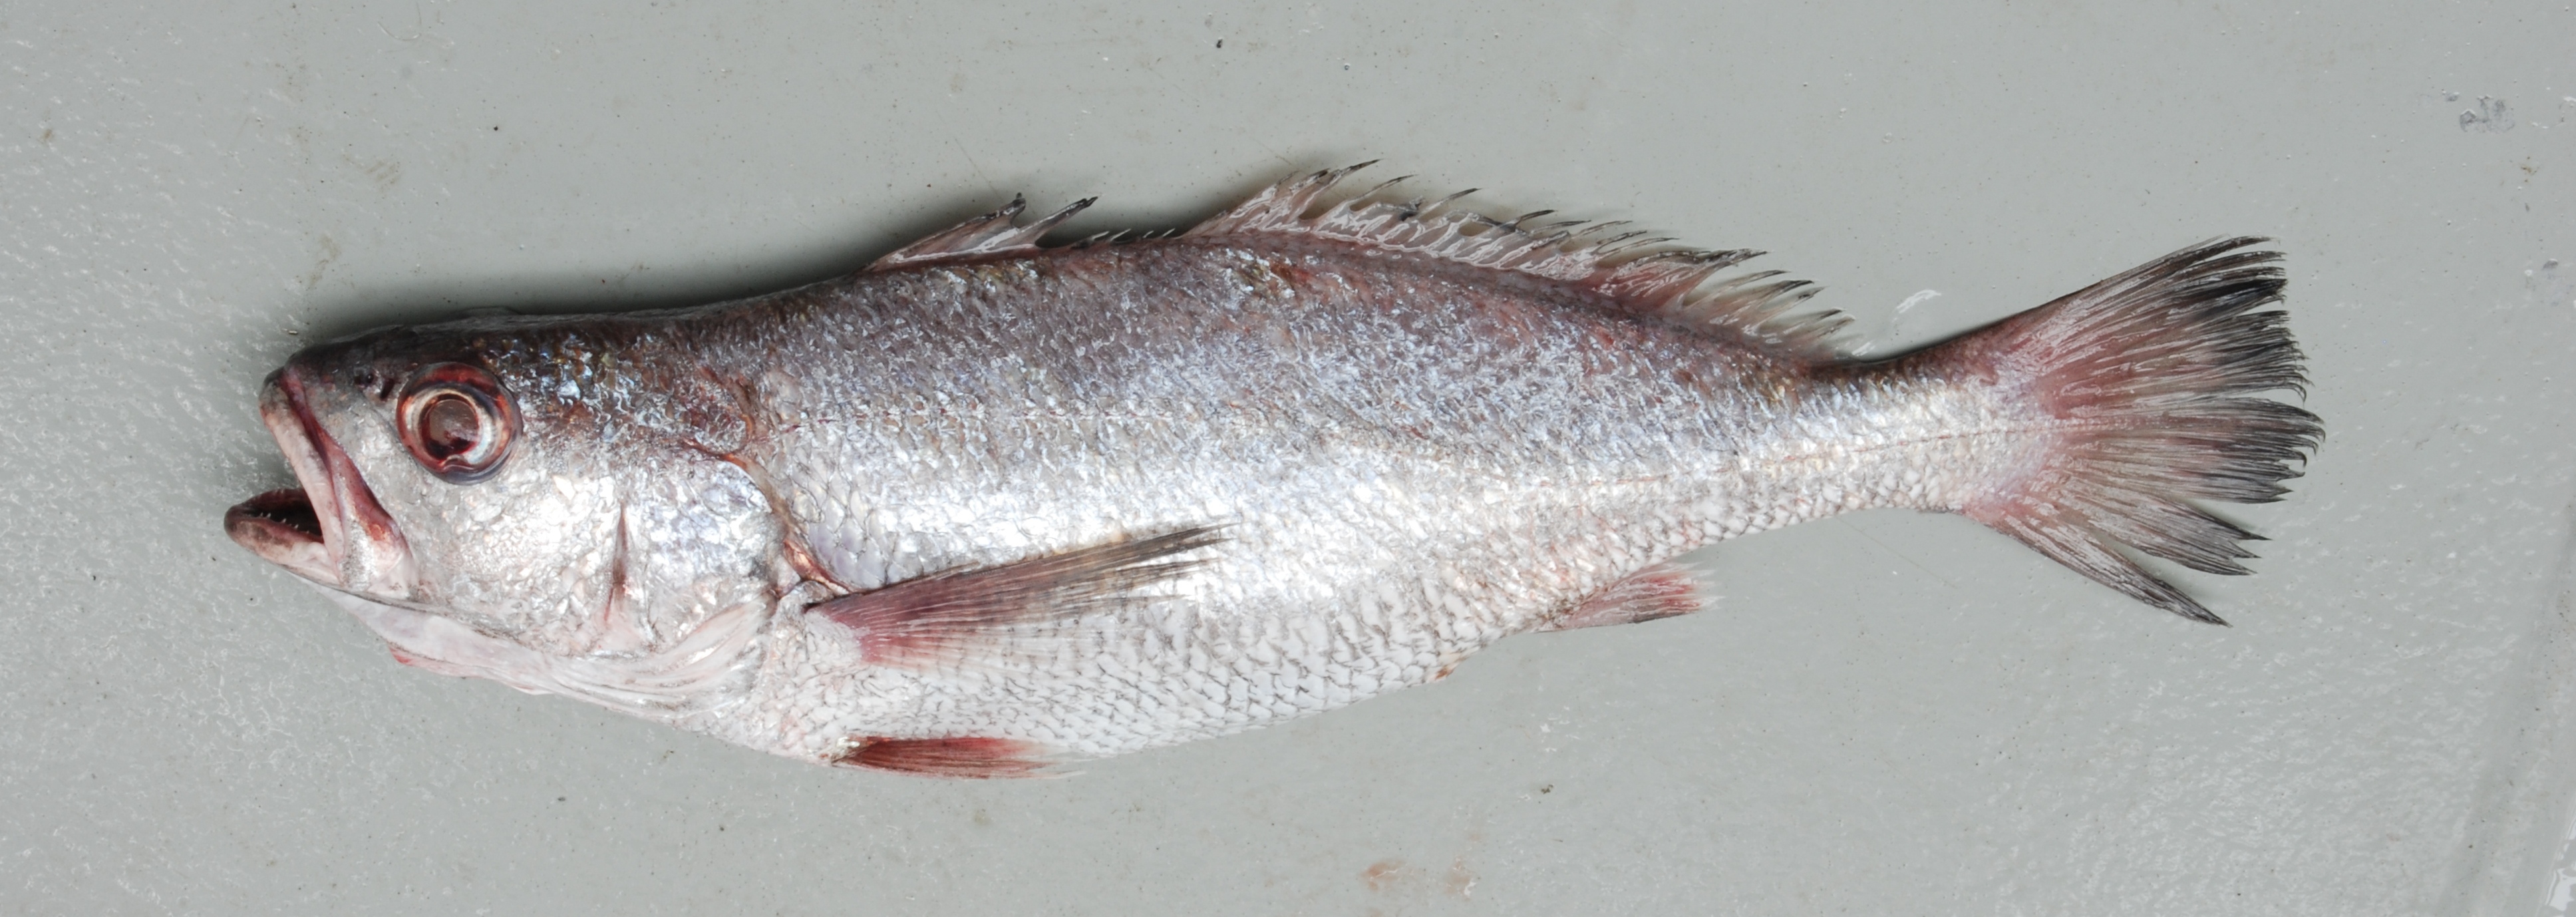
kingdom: Animalia
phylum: Chordata
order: Perciformes
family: Sciaenidae
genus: Atrobucca
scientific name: Atrobucca nibe
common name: Blackmouth croaker
